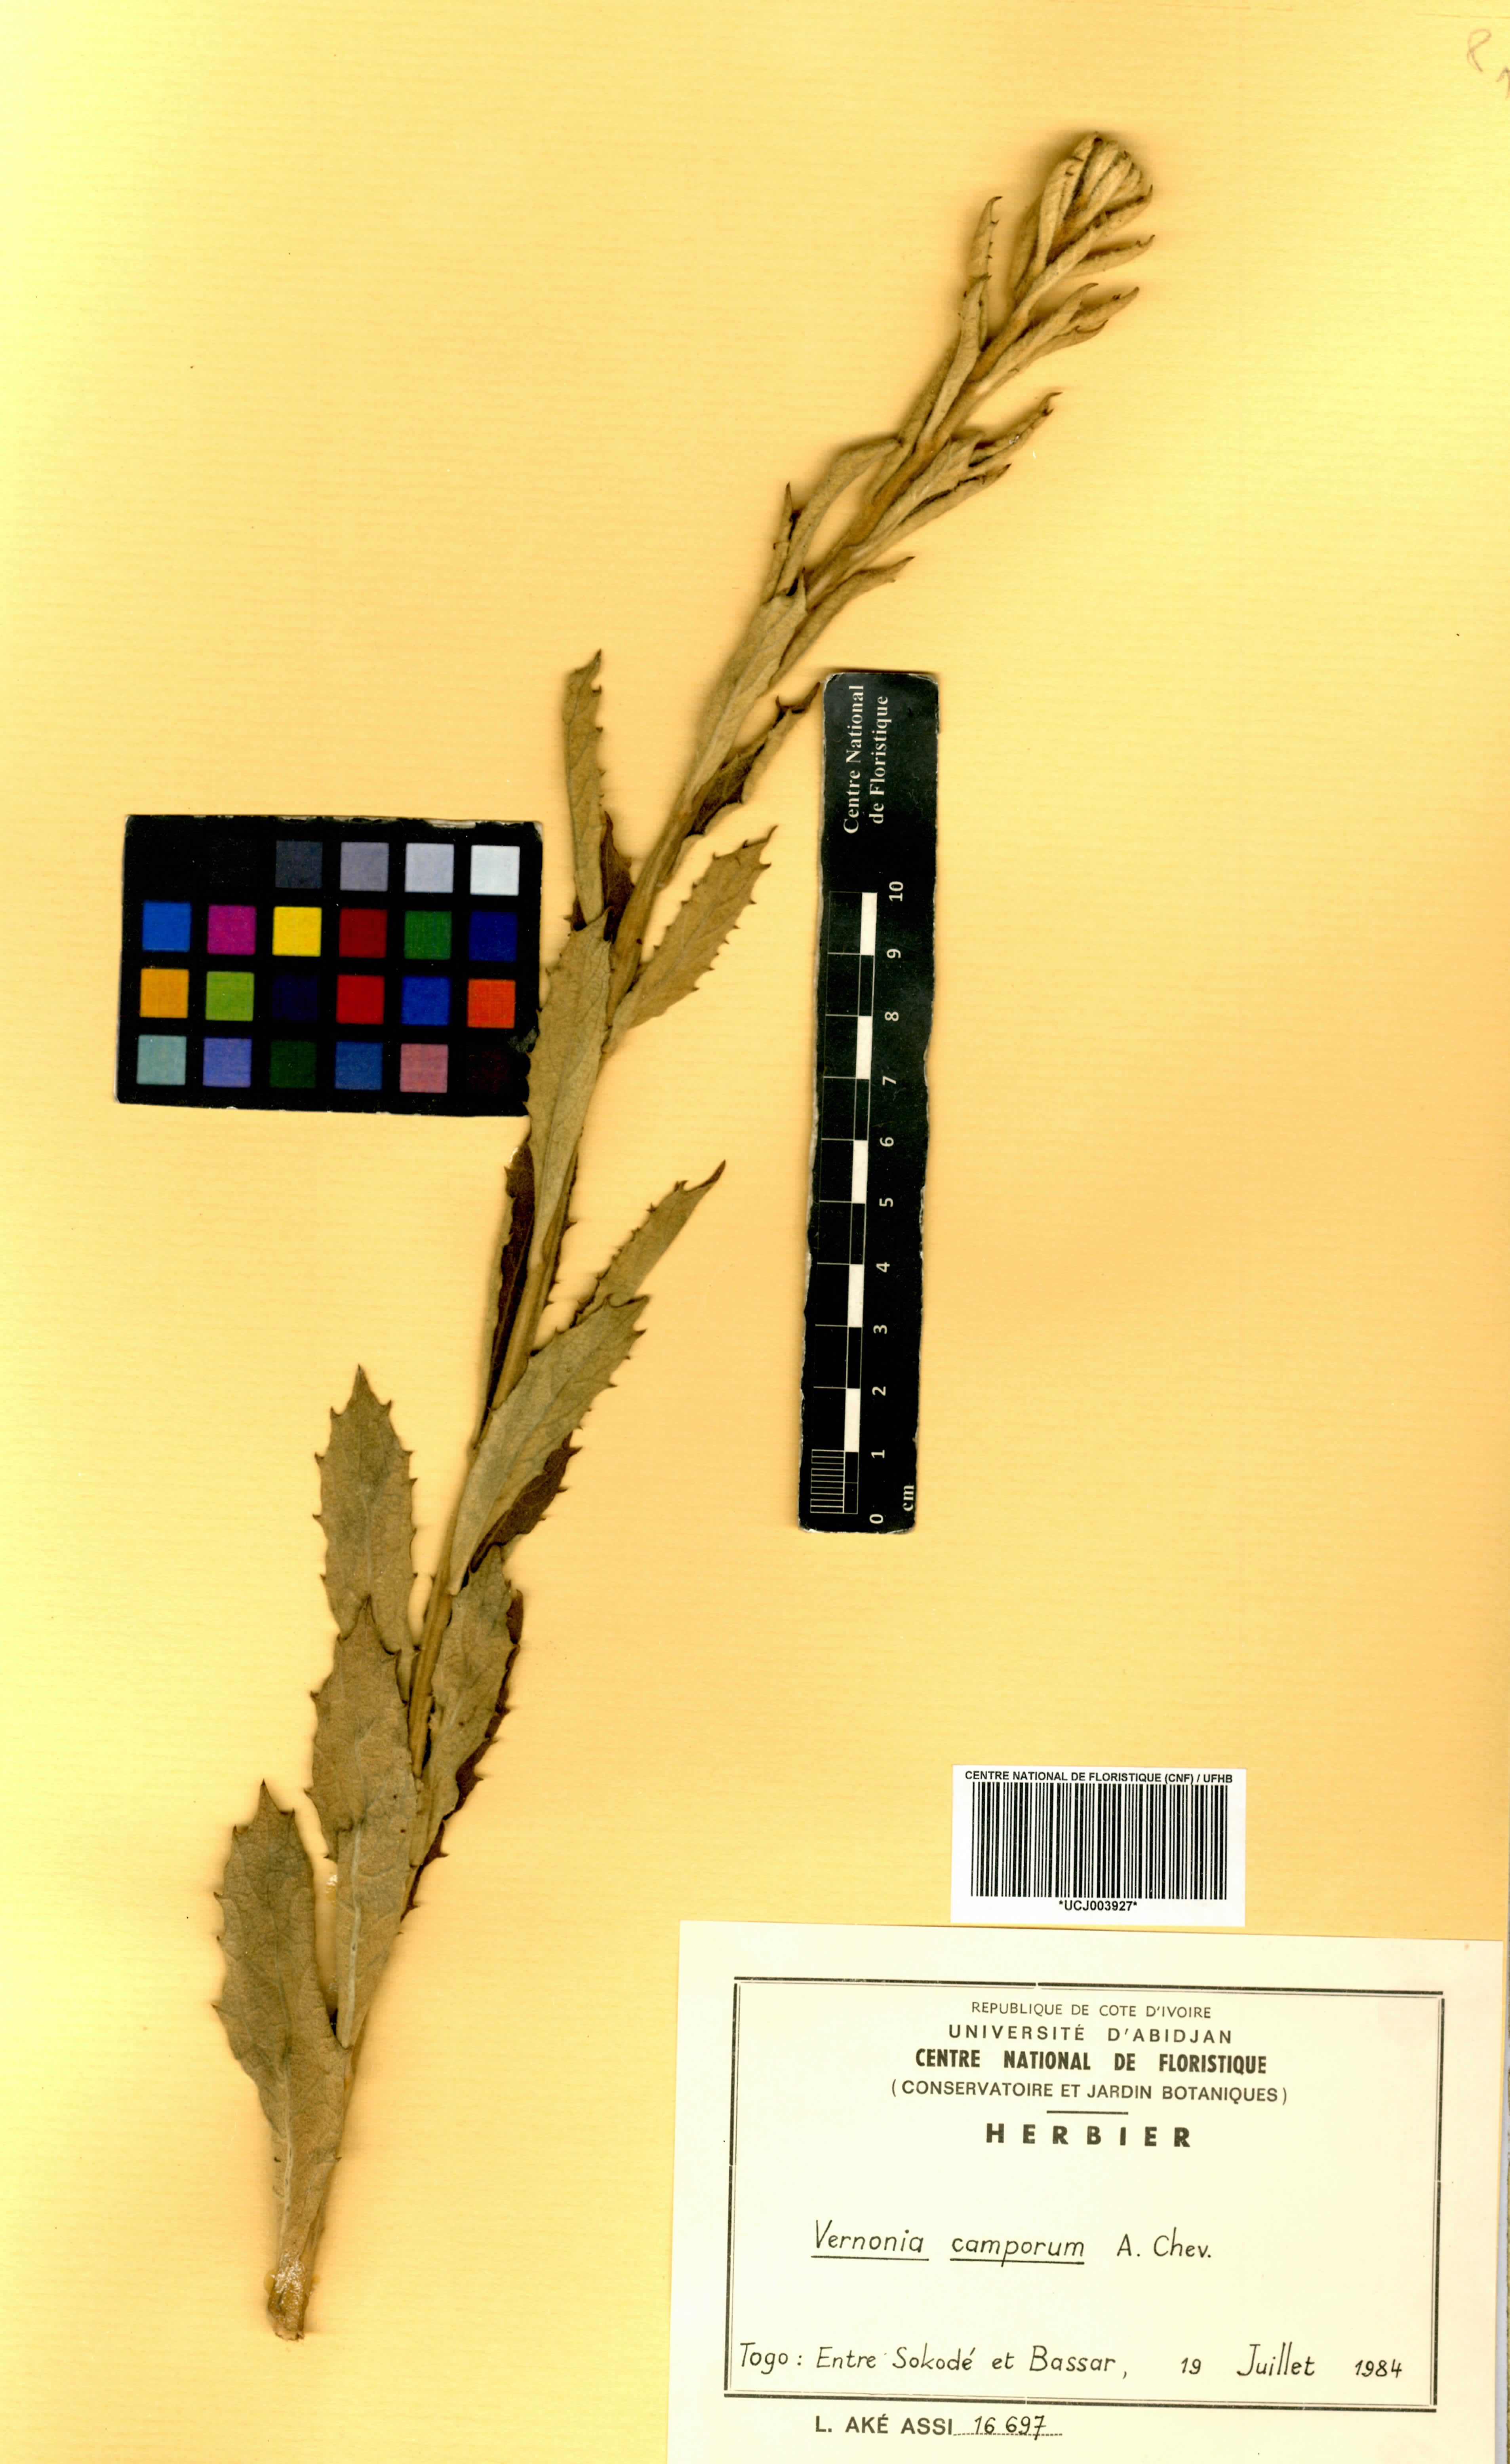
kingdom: Plantae
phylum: Tracheophyta
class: Magnoliopsida
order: Asterales
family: Asteraceae
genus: Vernoniastrum
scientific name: Vernoniastrum camporum
